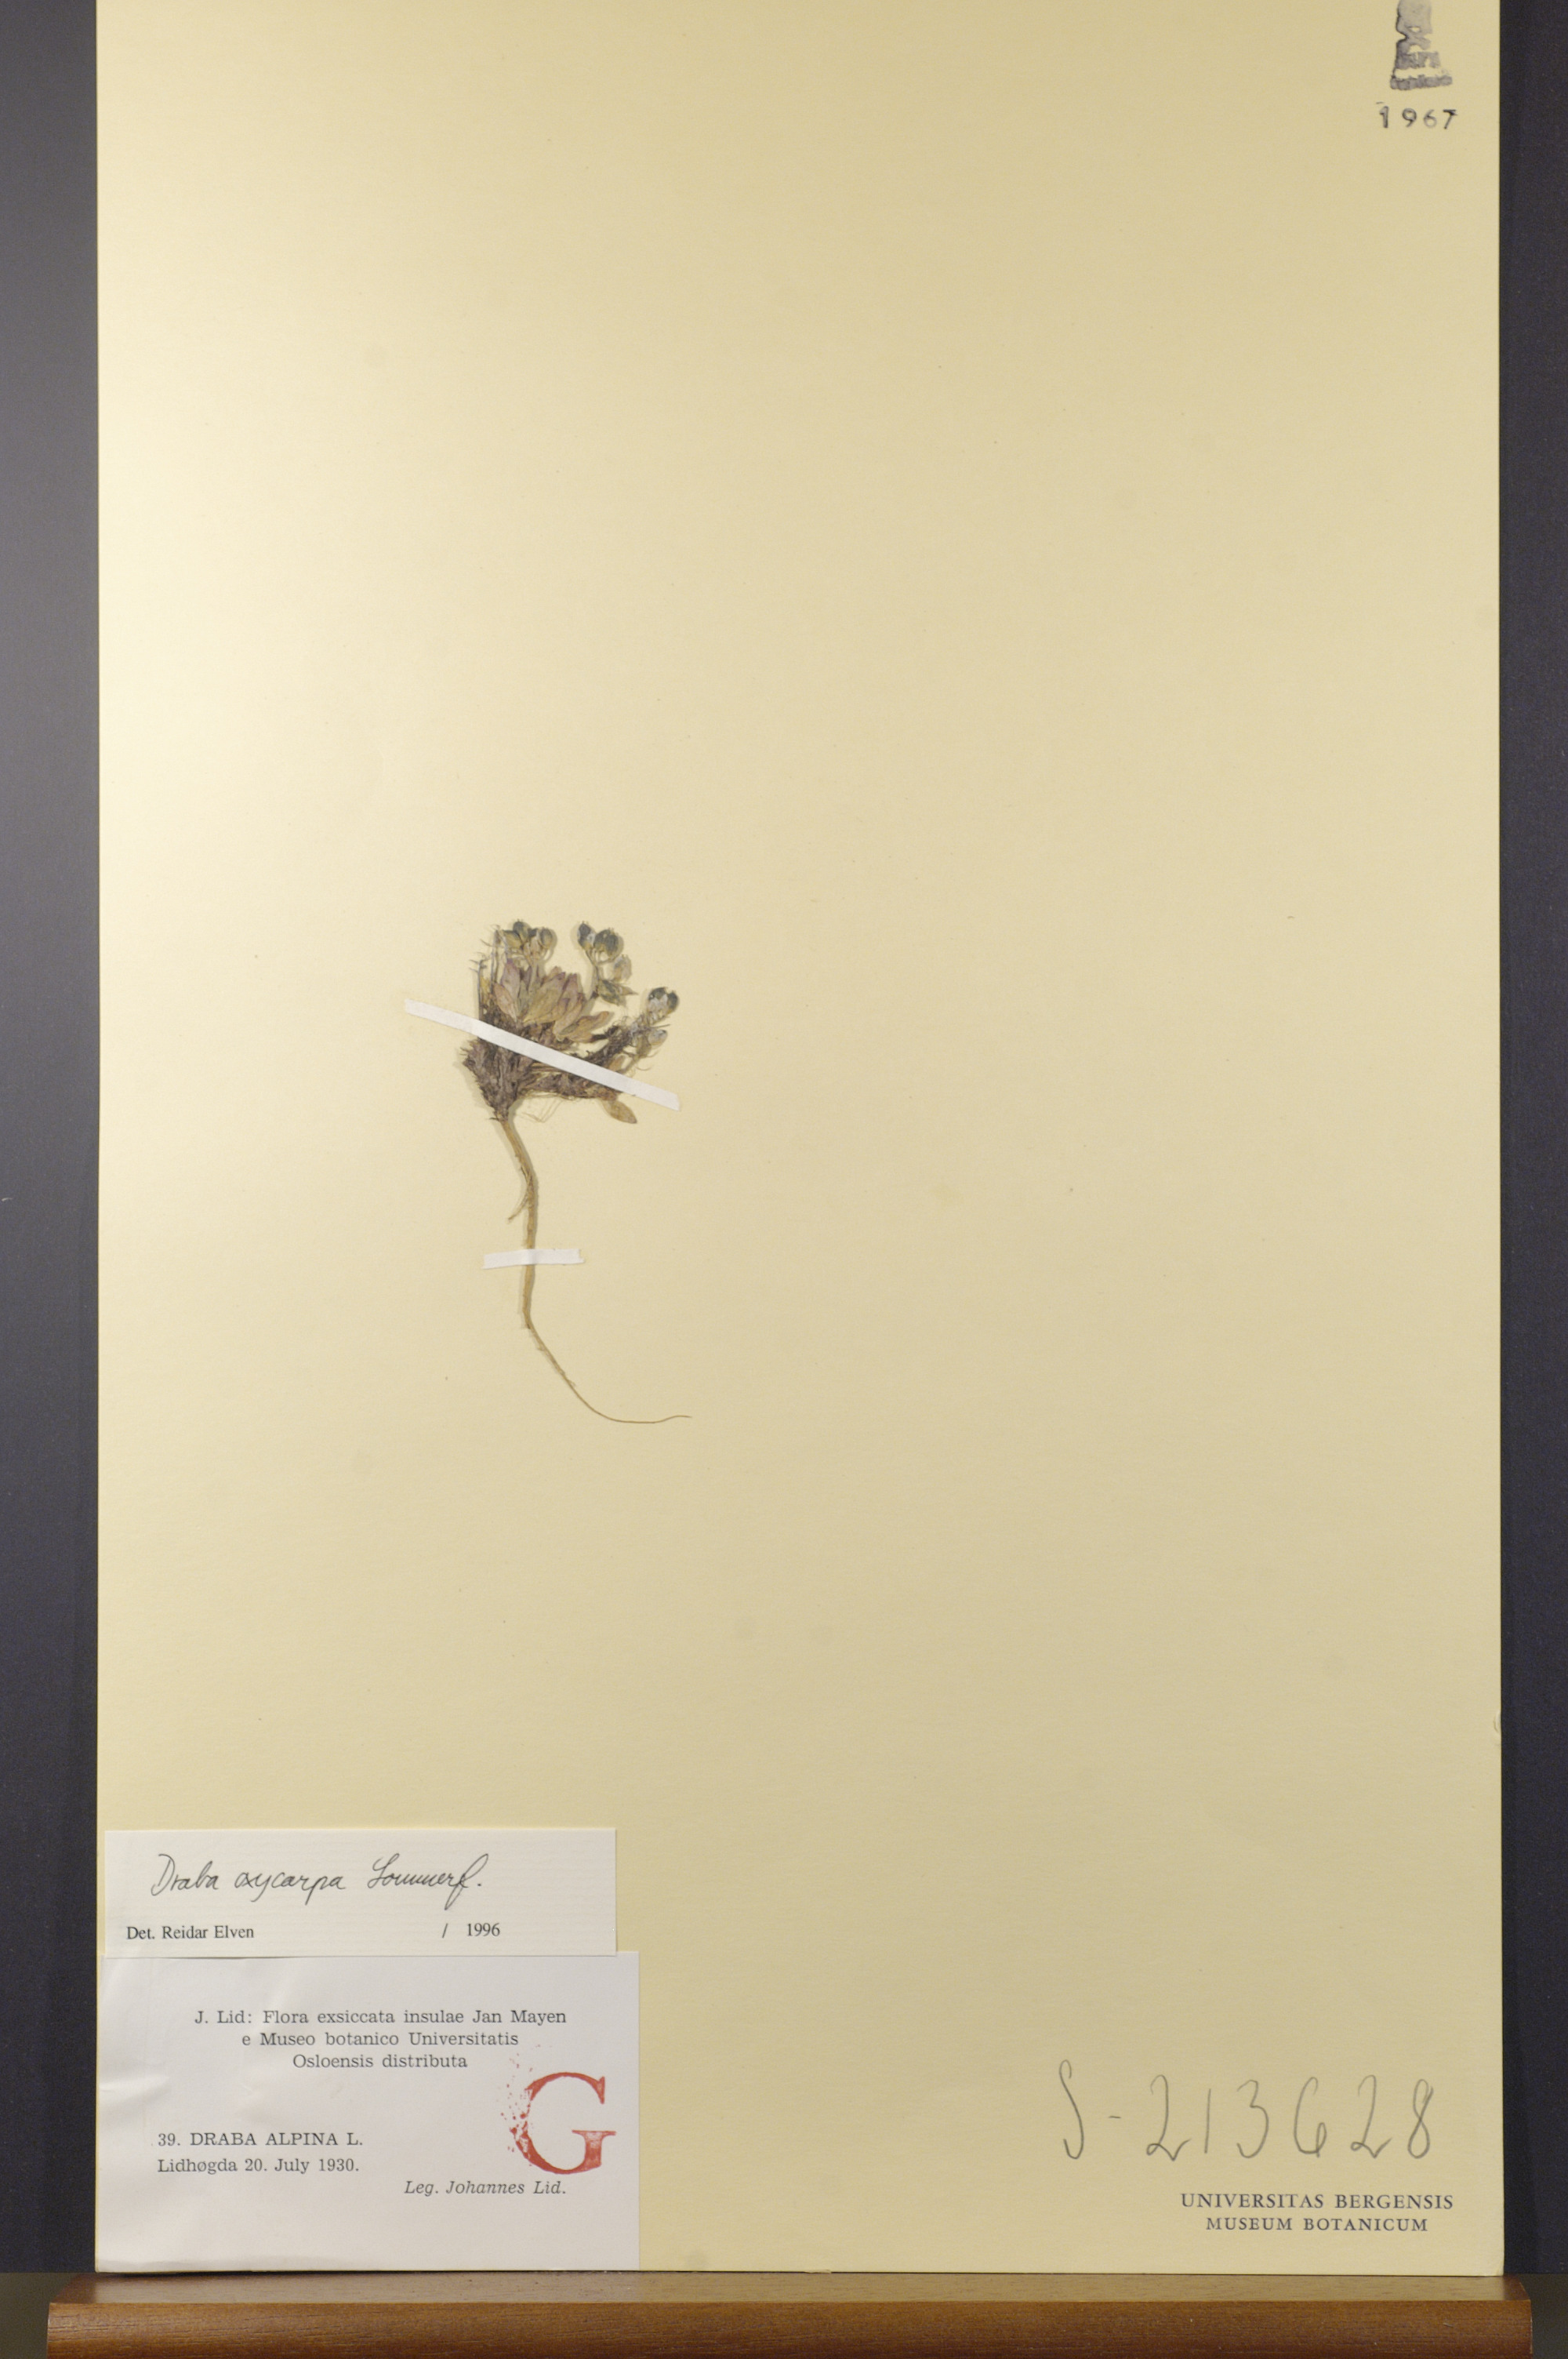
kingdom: Plantae
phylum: Tracheophyta
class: Magnoliopsida
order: Brassicales
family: Brassicaceae
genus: Draba
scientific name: Draba oxycarpa
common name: Sharp-fruited whitlow-grass
